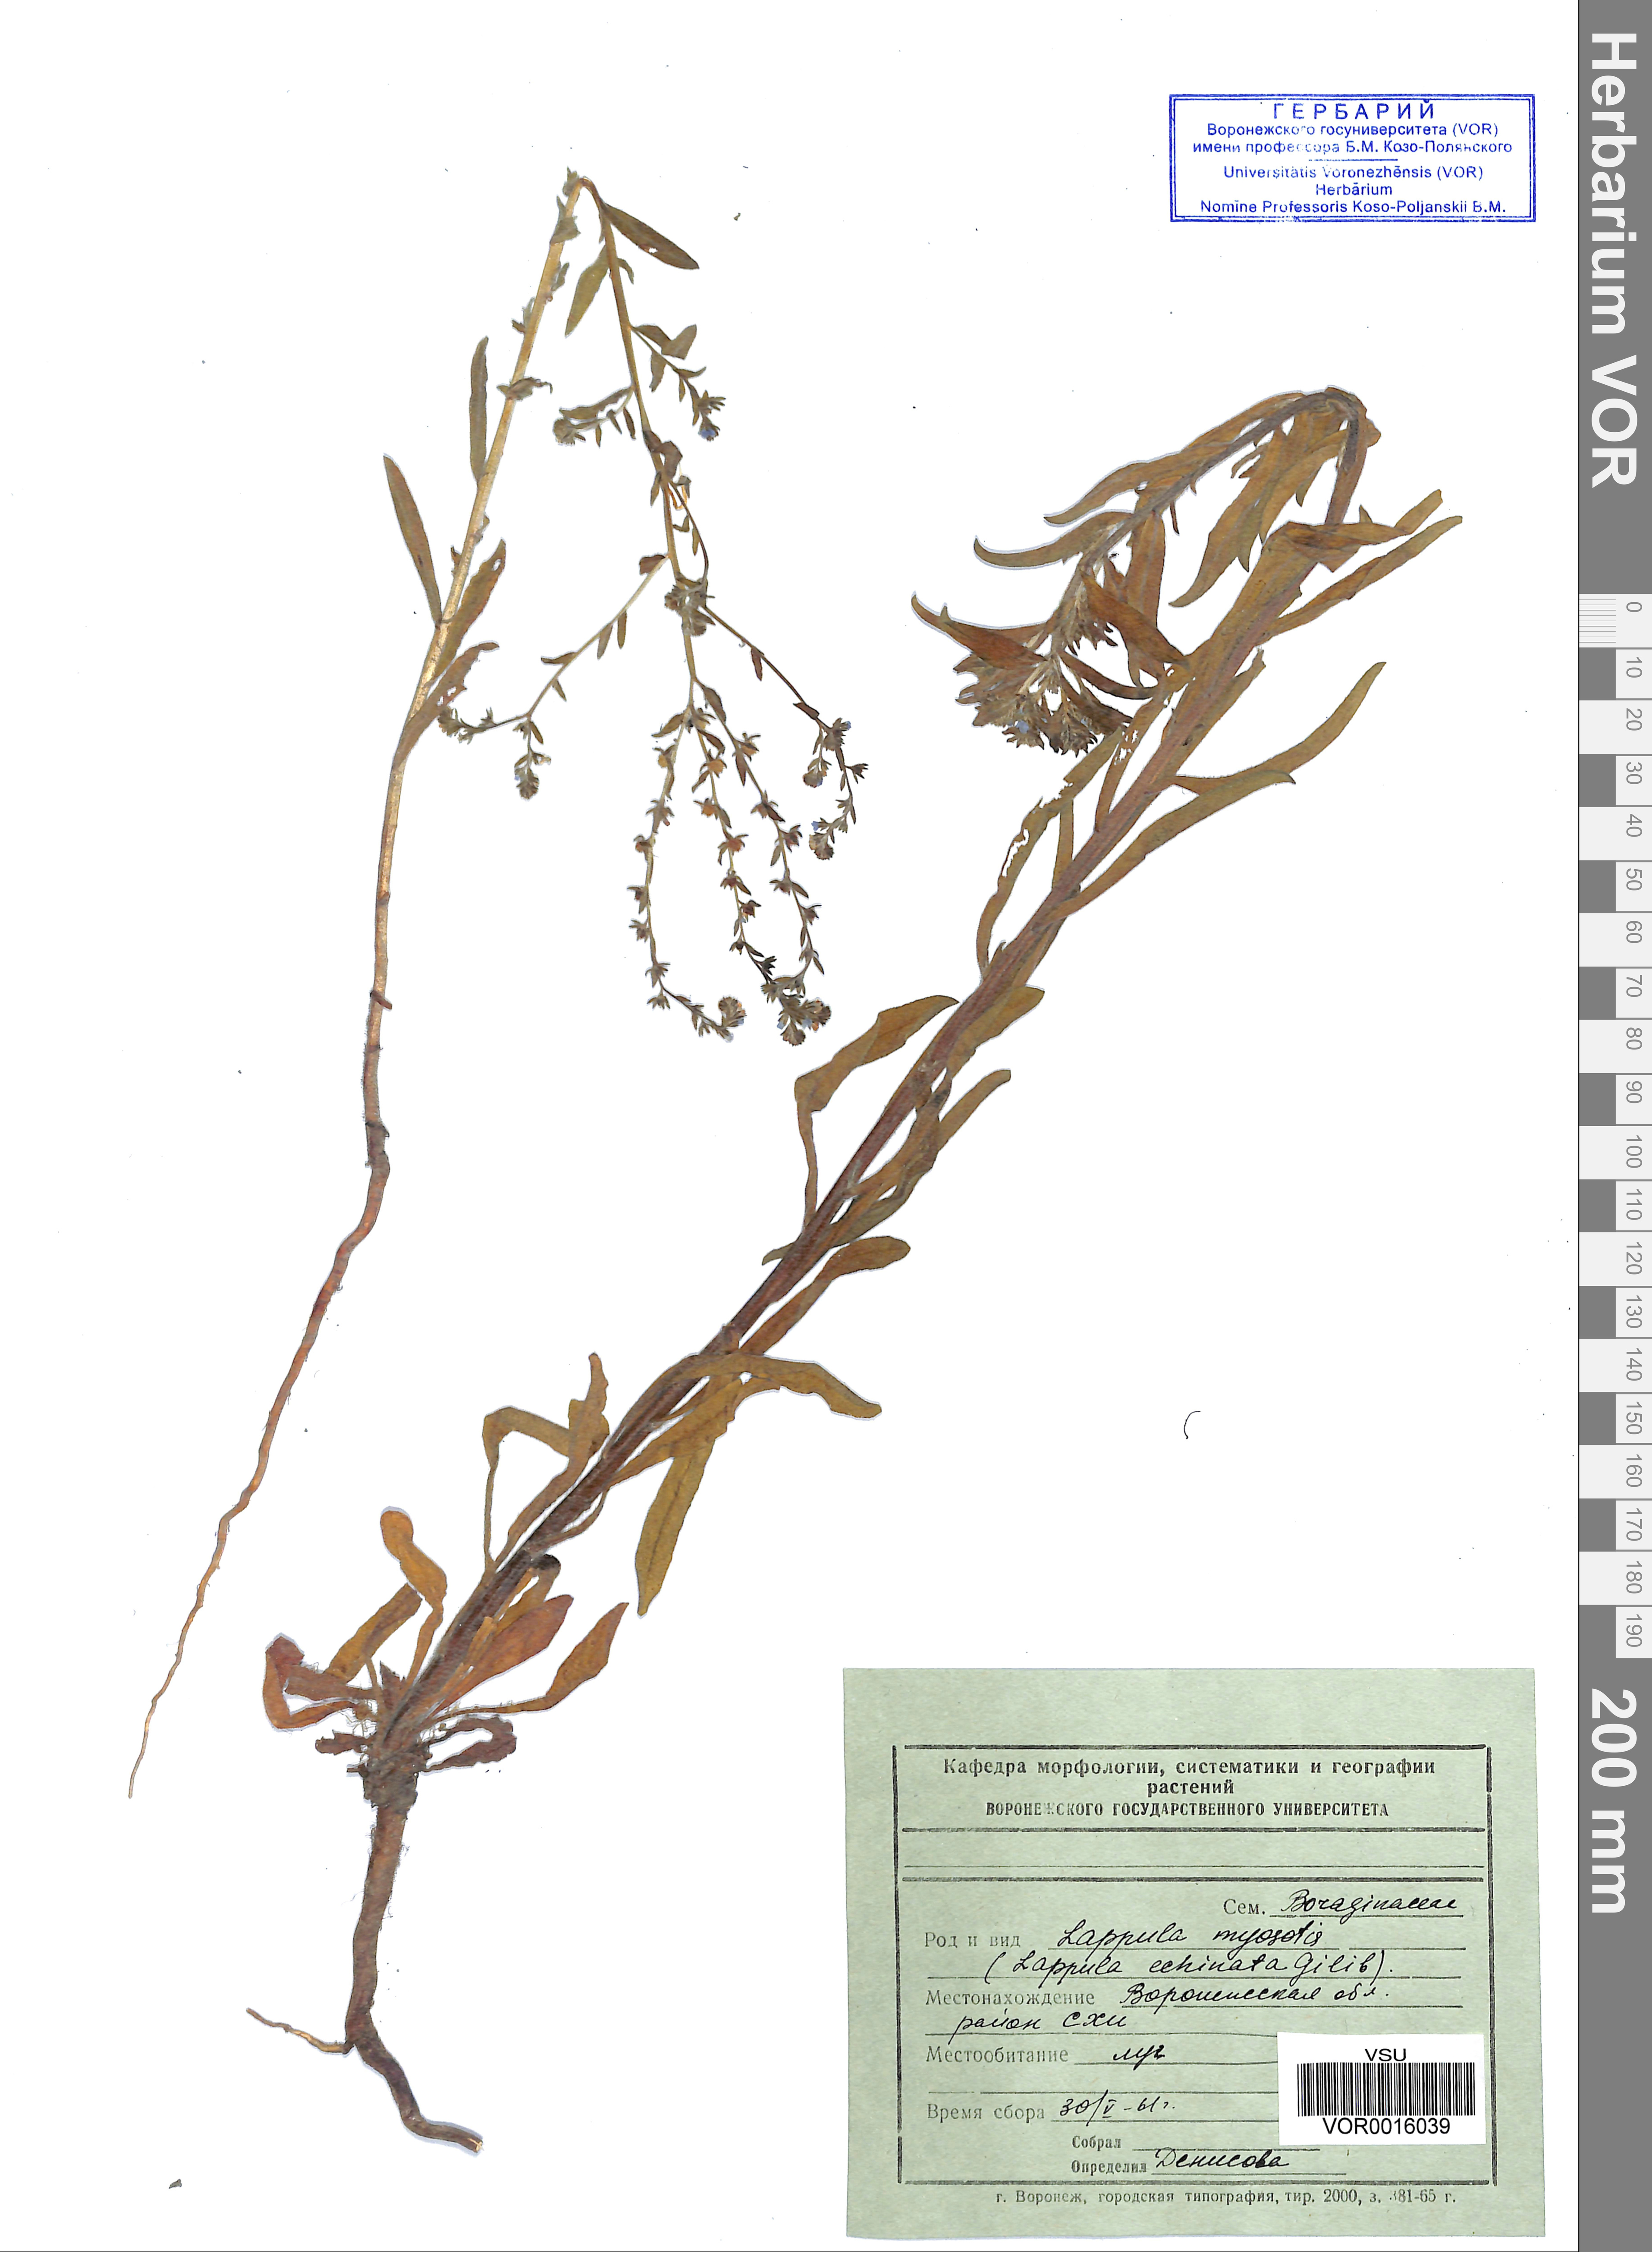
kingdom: Plantae
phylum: Tracheophyta
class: Magnoliopsida
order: Boraginales
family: Boraginaceae
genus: Lappula
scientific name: Lappula squarrosa
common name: European stickseed
